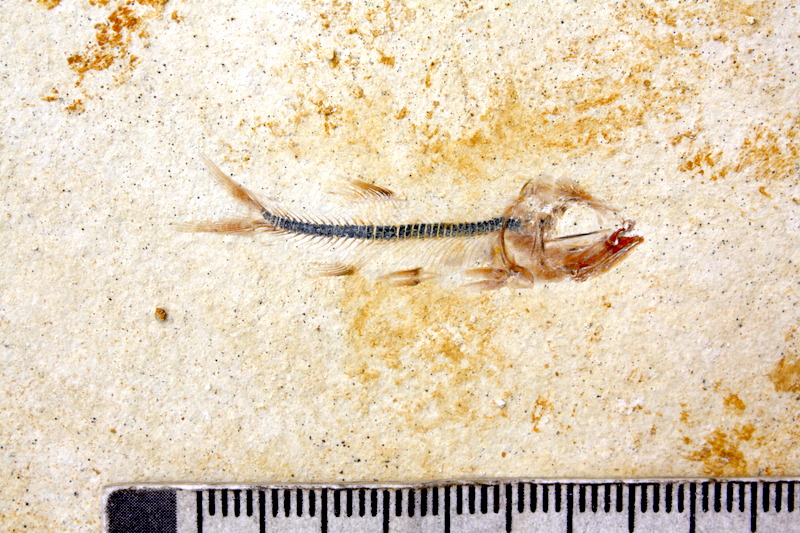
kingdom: Animalia
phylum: Chordata
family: Ascalaboidae
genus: Ebertichthys
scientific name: Ebertichthys ettlingensis
